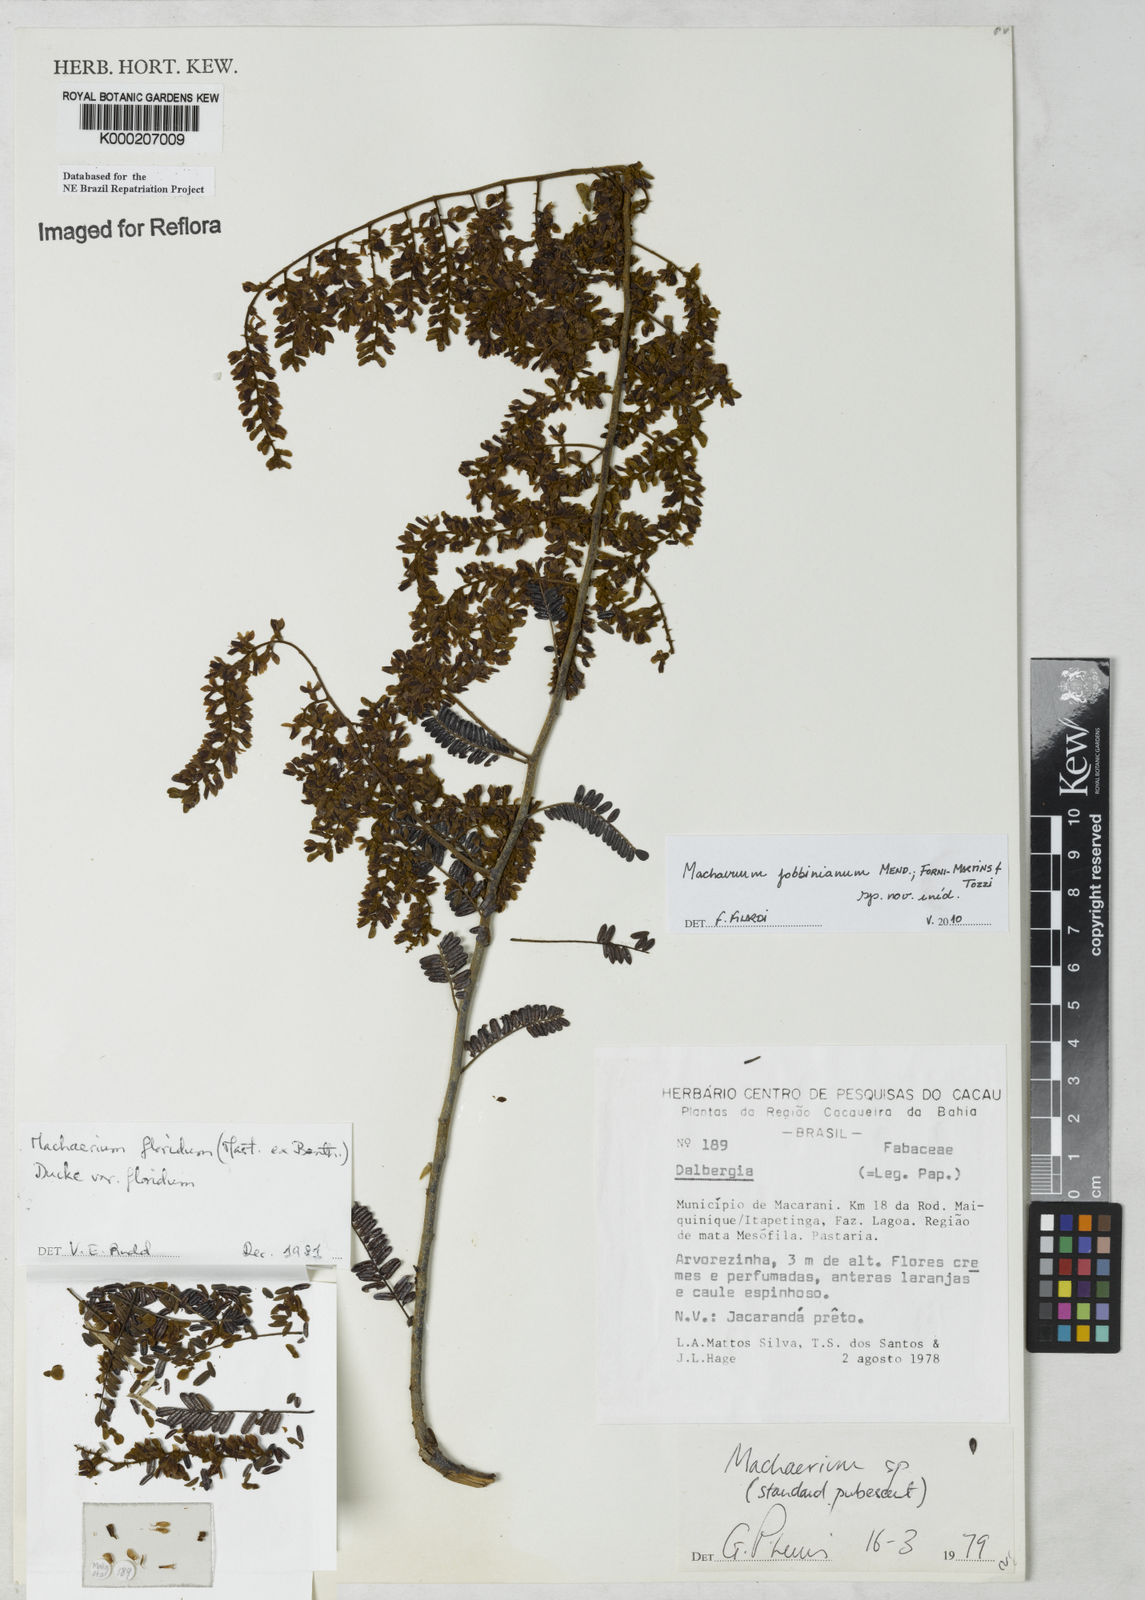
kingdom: Plantae
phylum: Tracheophyta
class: Magnoliopsida
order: Fabales
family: Fabaceae
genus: Machaerium
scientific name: Machaerium floridum
